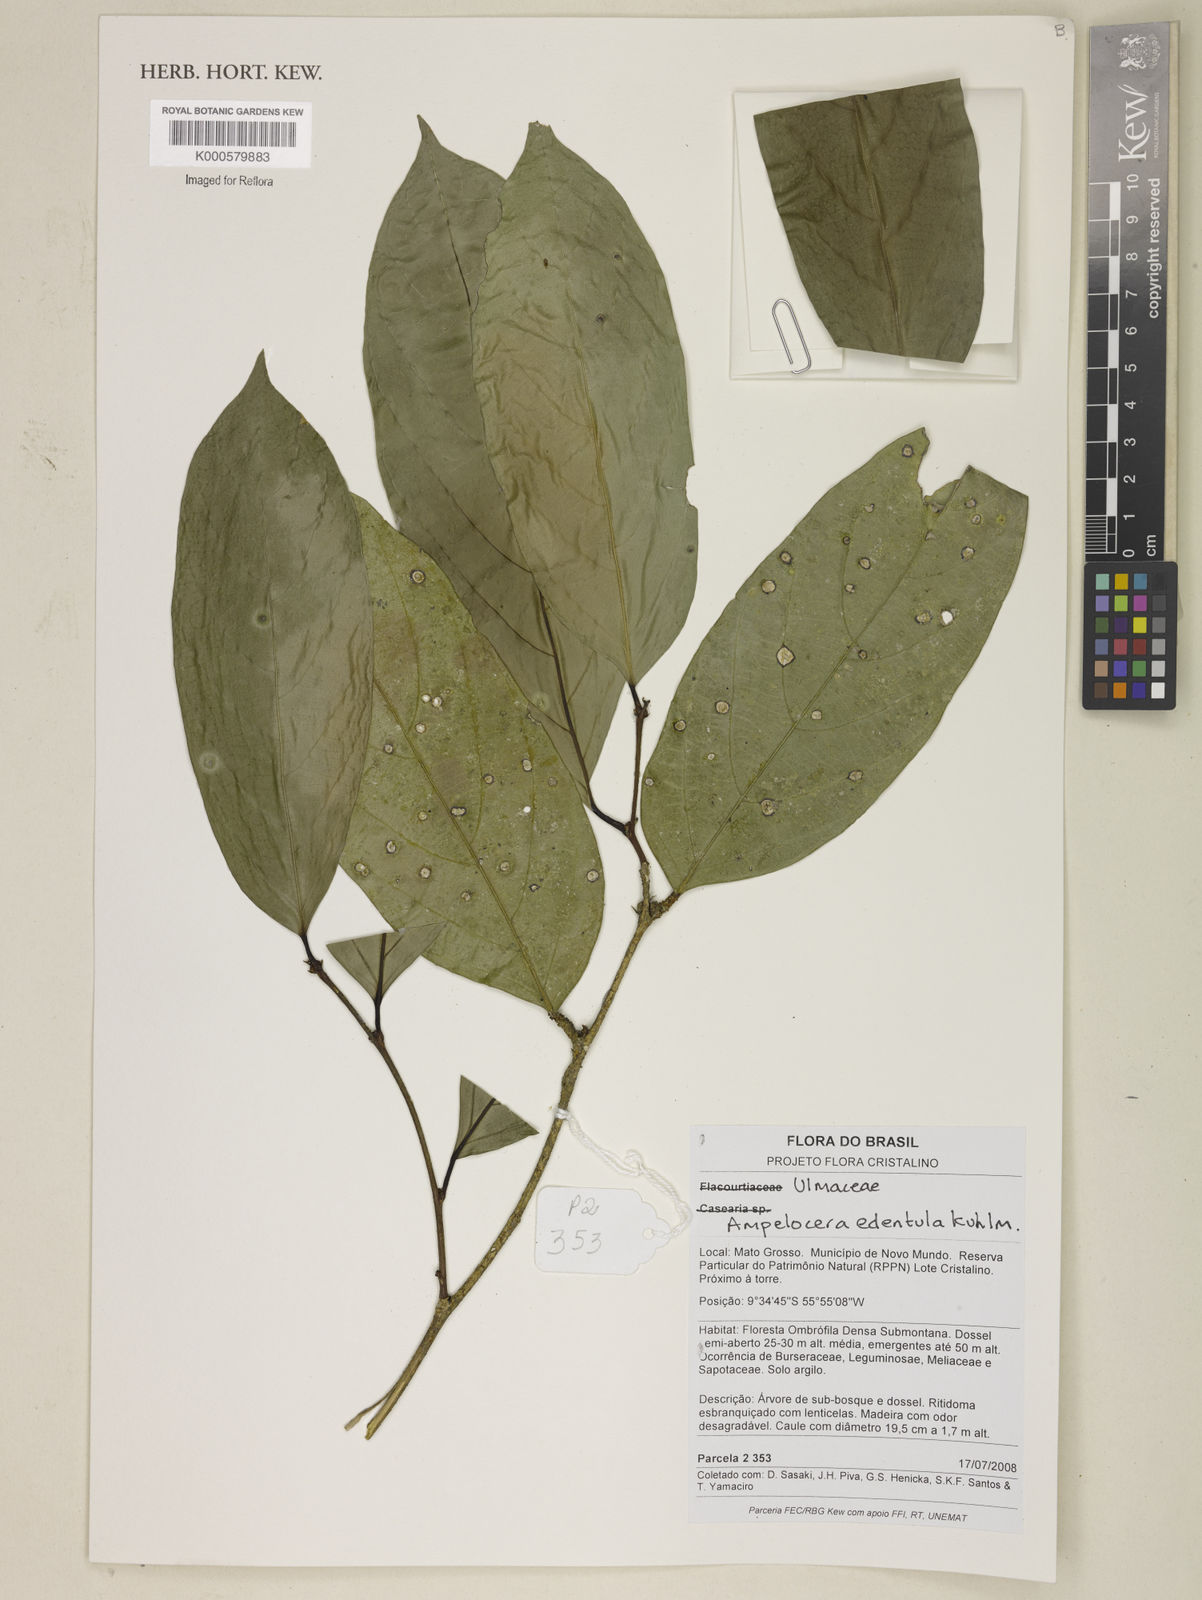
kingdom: Plantae
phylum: Tracheophyta
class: Magnoliopsida
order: Rosales
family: Cannabaceae
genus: Ampelocera
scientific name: Ampelocera edentula
